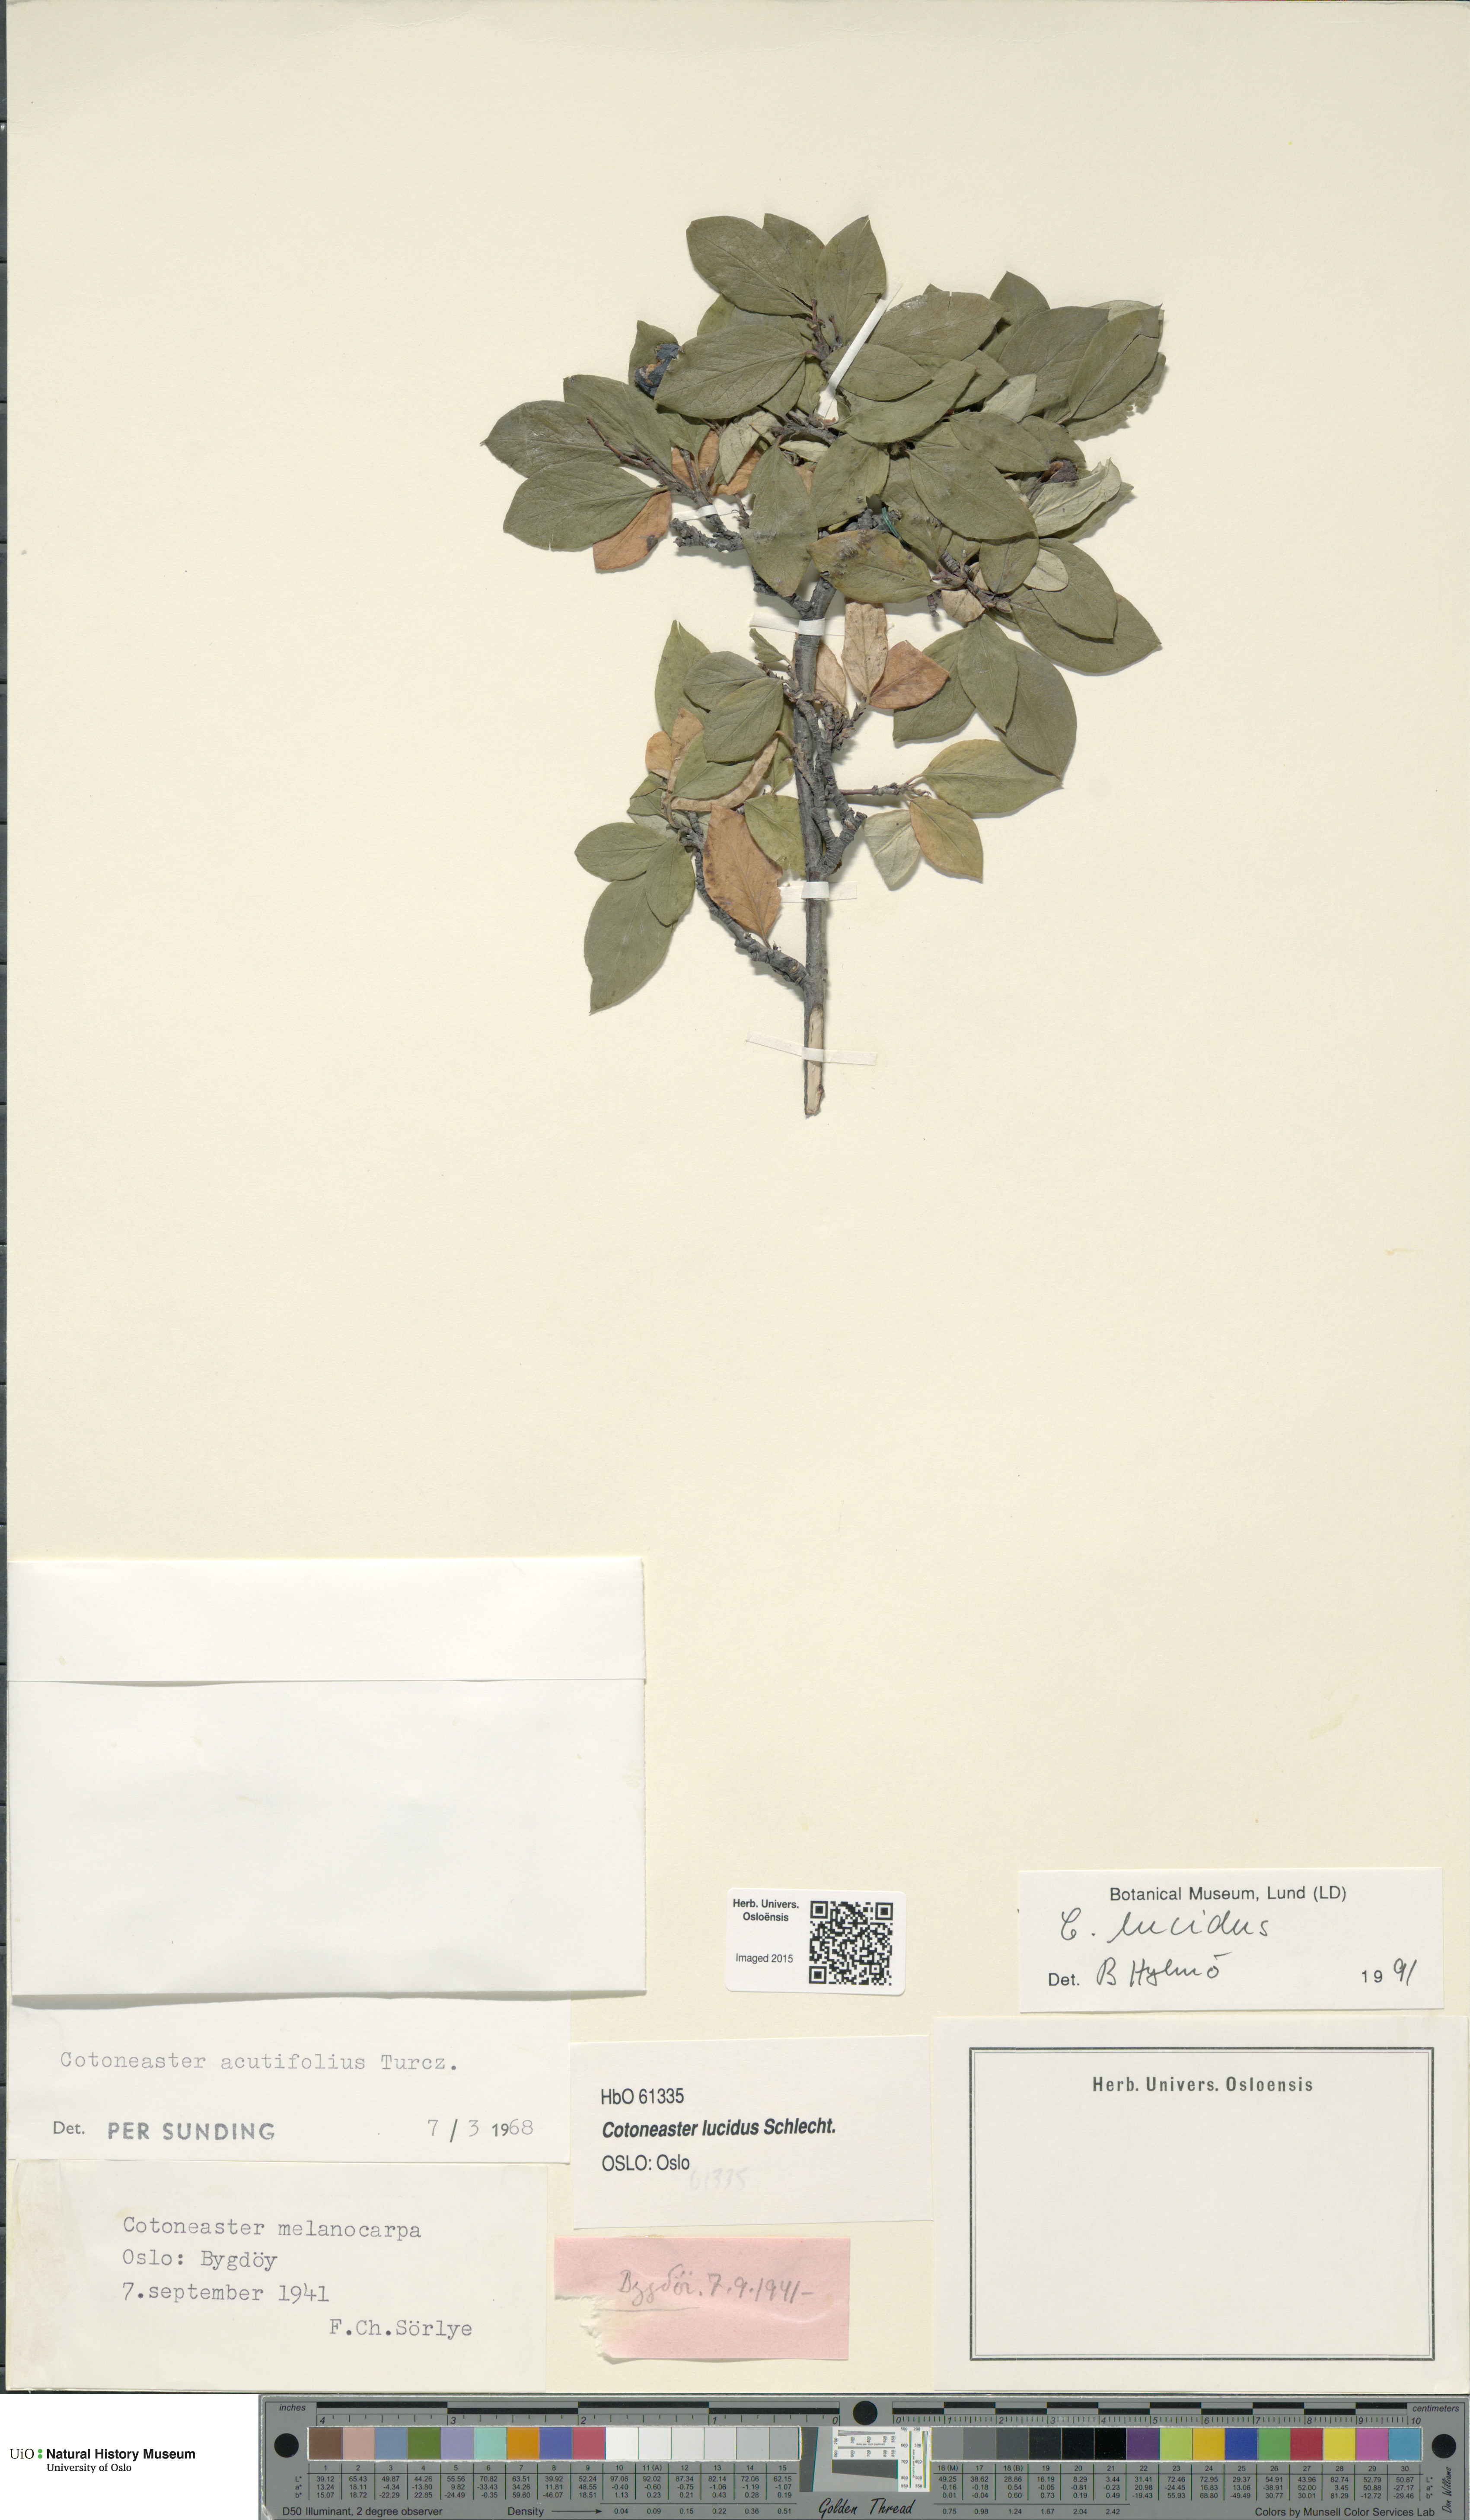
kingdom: Plantae
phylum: Tracheophyta
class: Magnoliopsida
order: Rosales
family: Rosaceae
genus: Cotoneaster
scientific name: Cotoneaster acutifolius
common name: Peking cotoneaster
